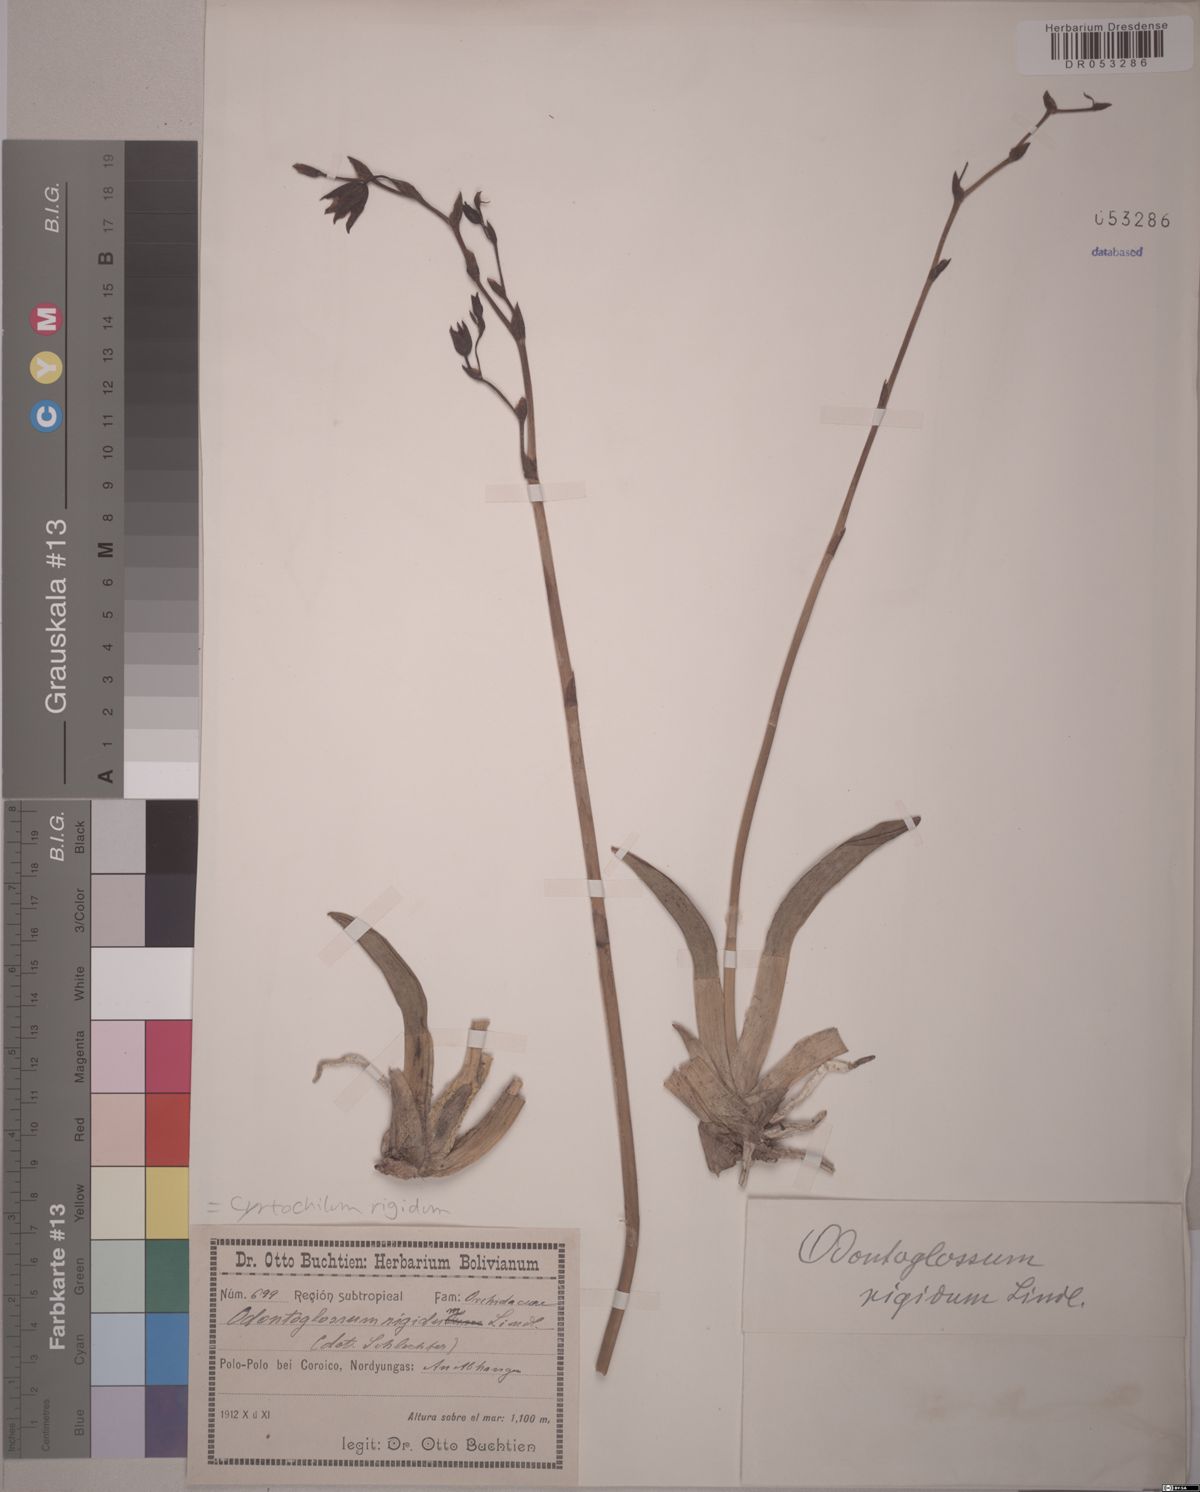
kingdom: Plantae
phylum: Tracheophyta
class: Liliopsida
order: Asparagales
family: Orchidaceae
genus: Cyrtochilum
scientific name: Cyrtochilum rigidum
